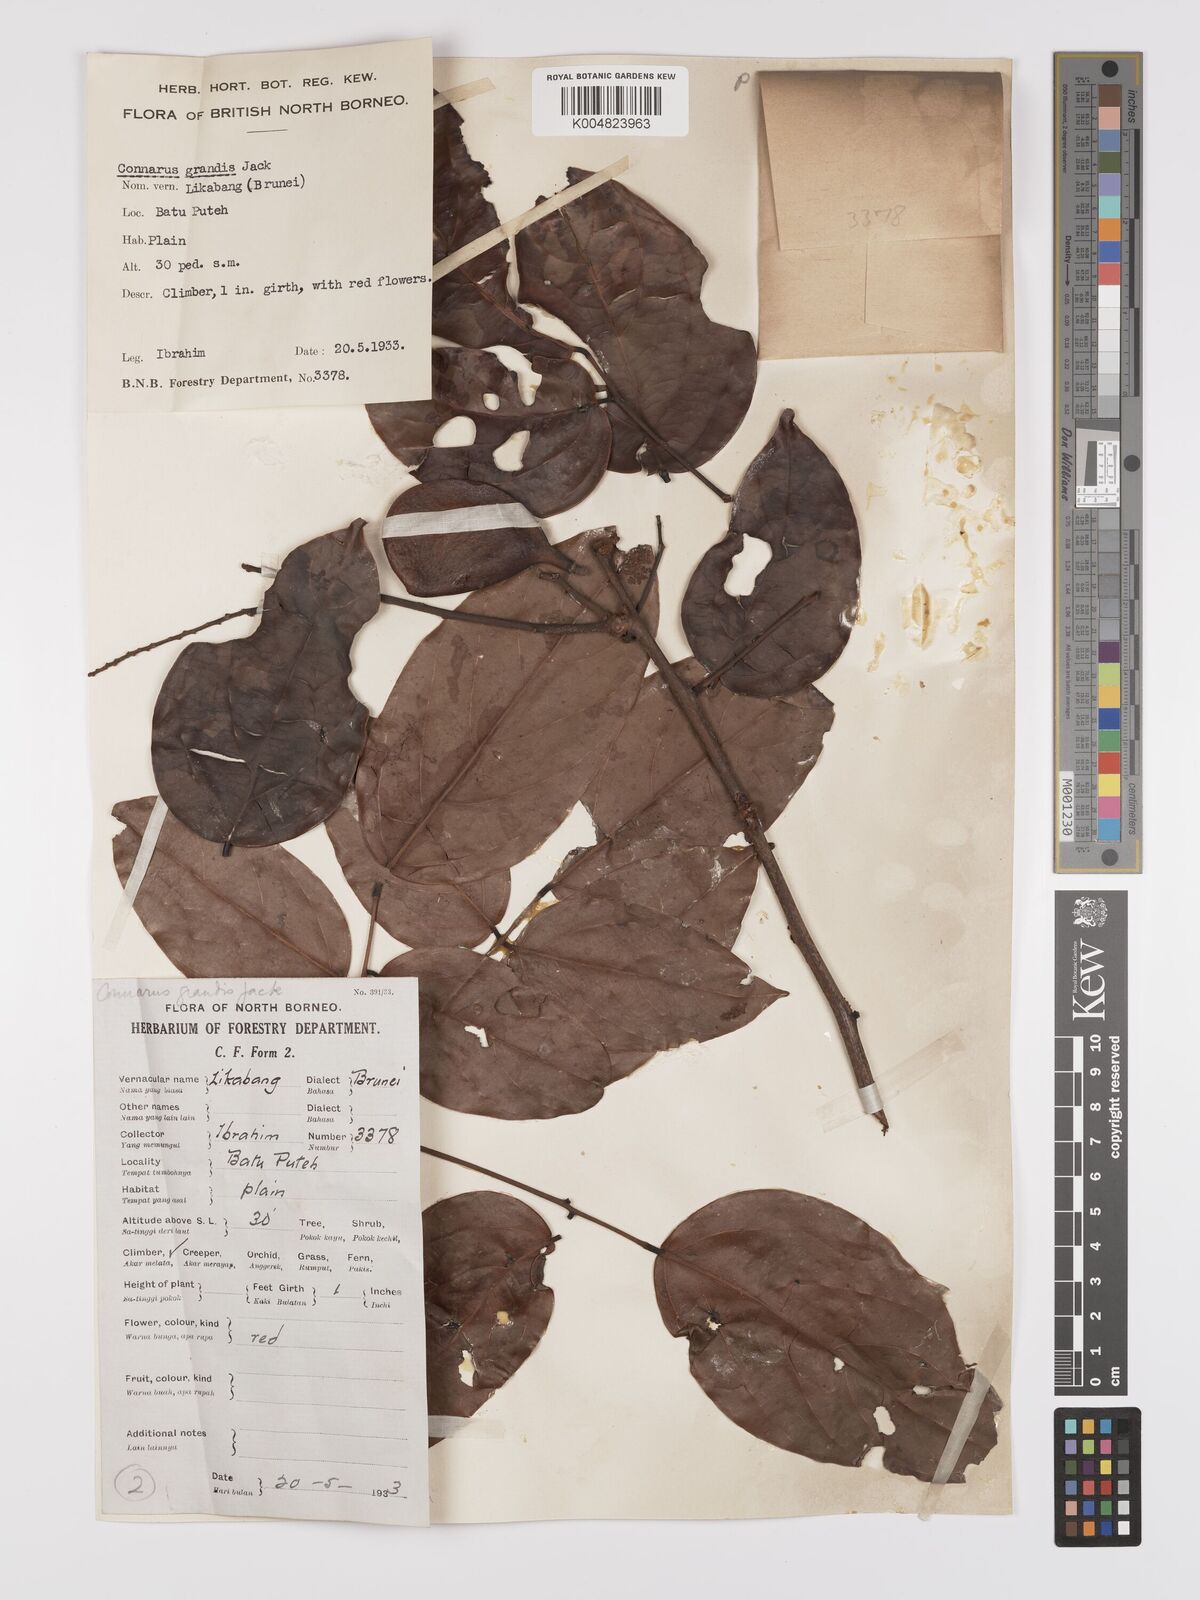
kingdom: Plantae
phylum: Tracheophyta
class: Magnoliopsida
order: Oxalidales
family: Connaraceae
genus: Connarus
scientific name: Connarus semidecandrus
